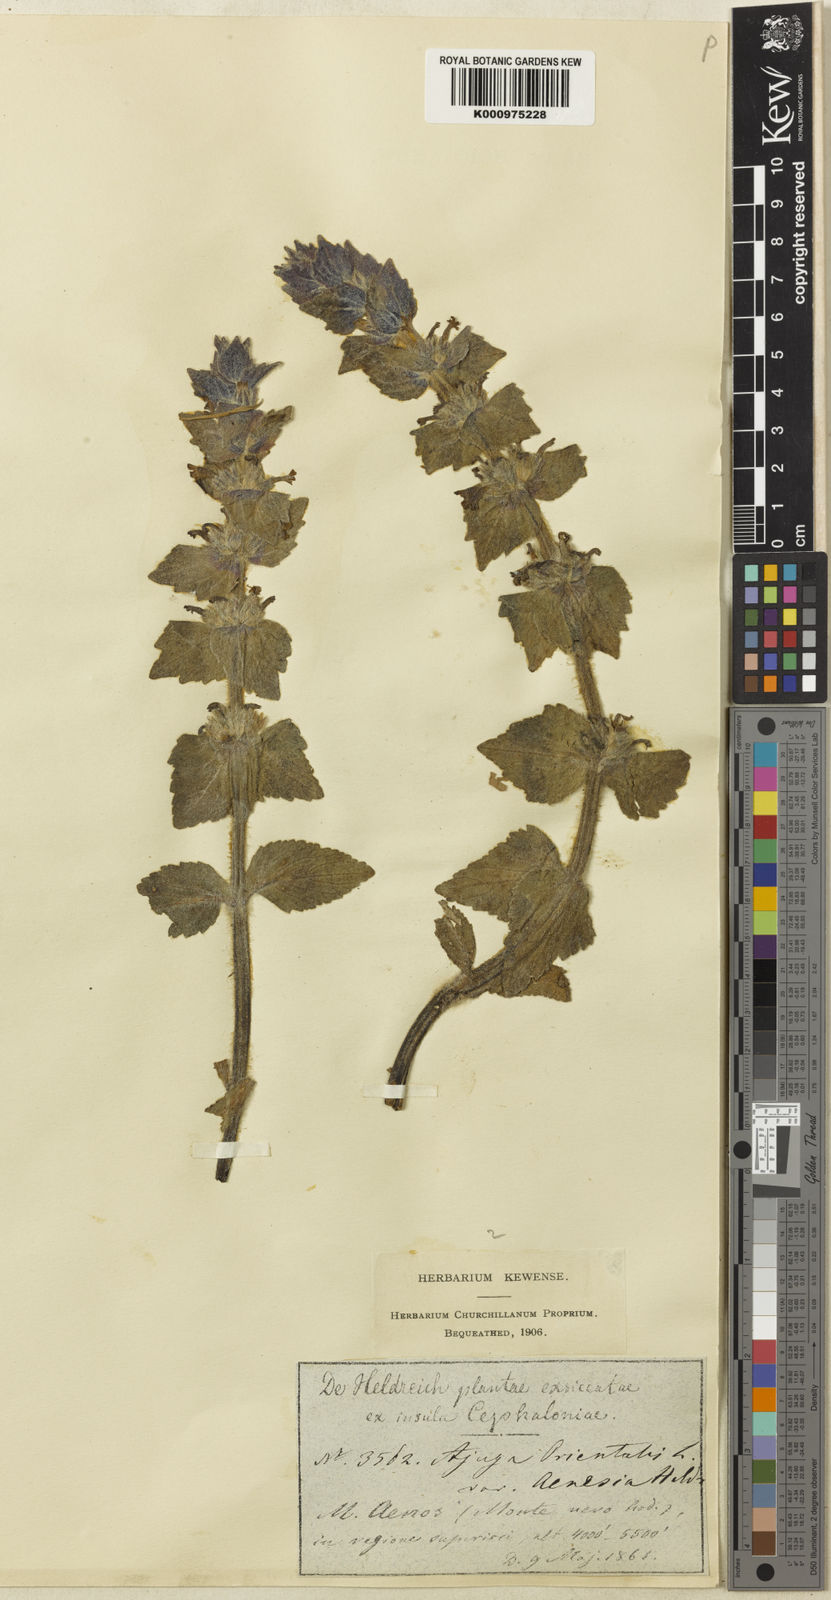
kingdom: Plantae
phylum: Tracheophyta
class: Magnoliopsida
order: Lamiales
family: Lamiaceae
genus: Ajuga
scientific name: Ajuga orientalis
